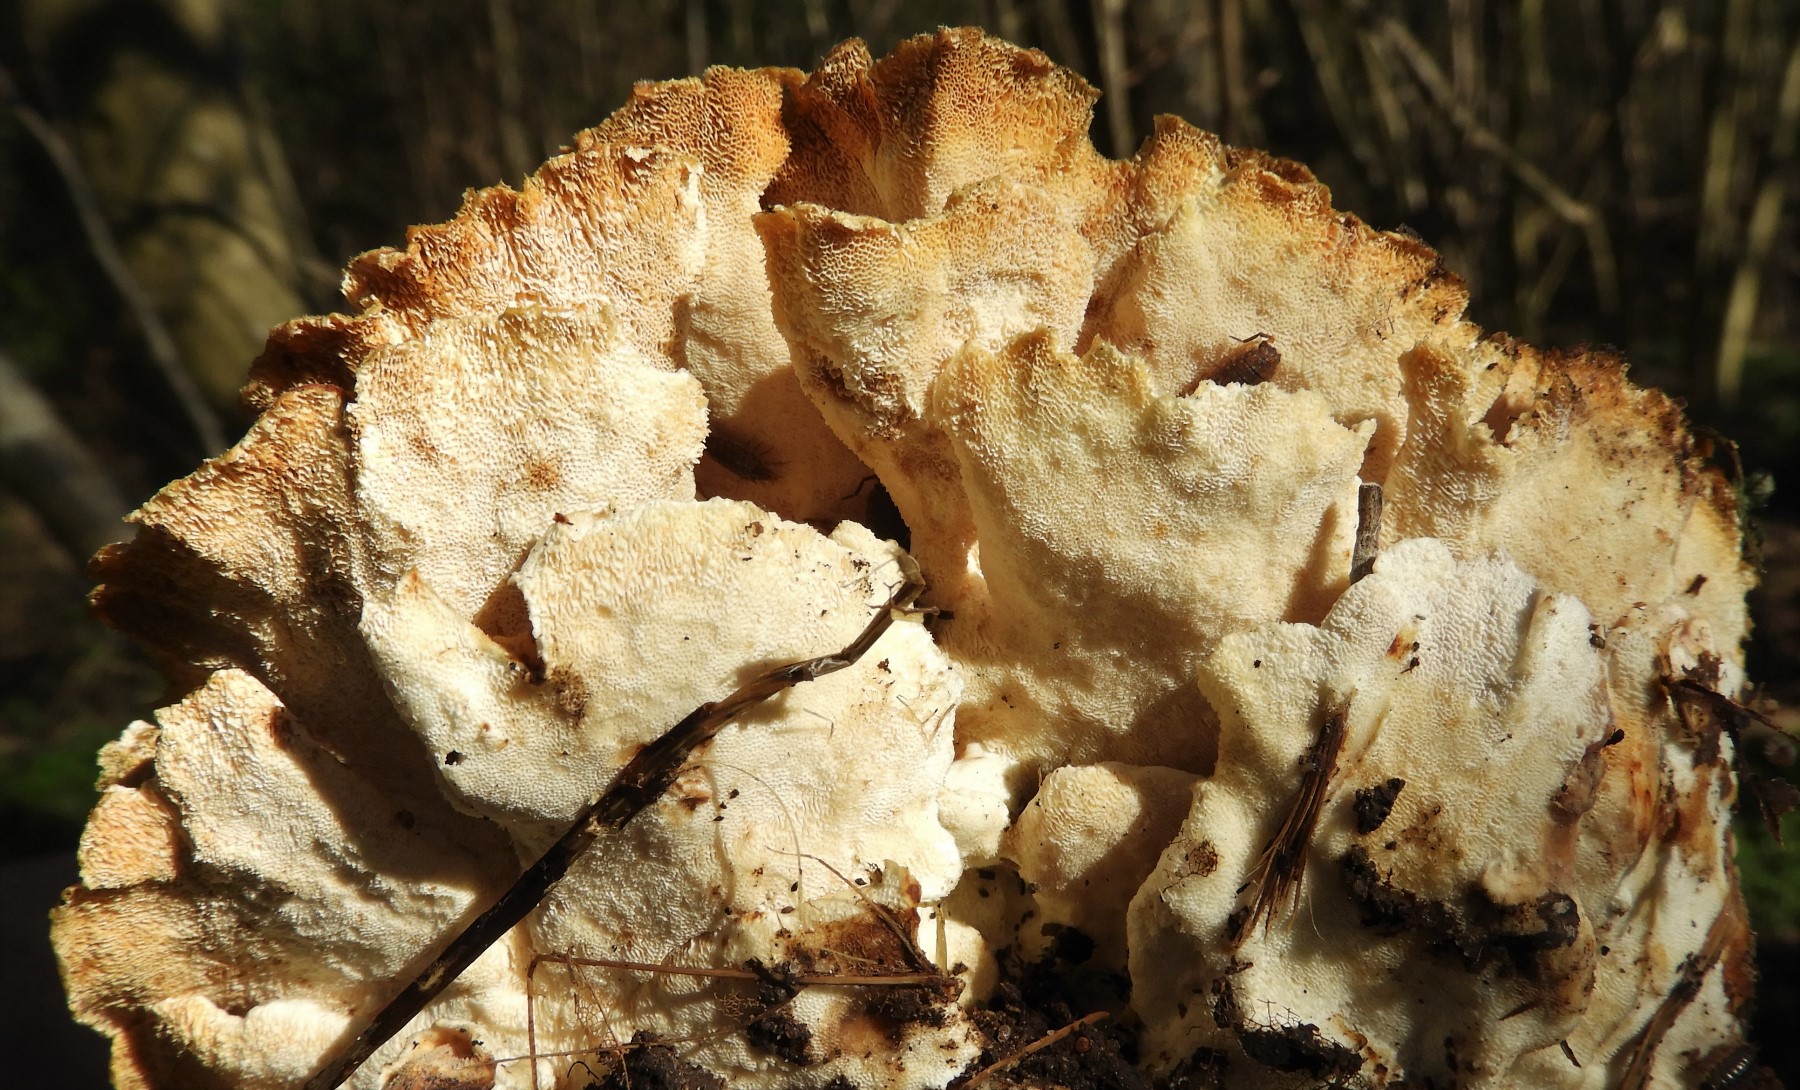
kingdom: Fungi
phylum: Basidiomycota
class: Agaricomycetes
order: Polyporales
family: Polyporaceae
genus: Trametes
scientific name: Trametes versicolor
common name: broget læderporesvamp
